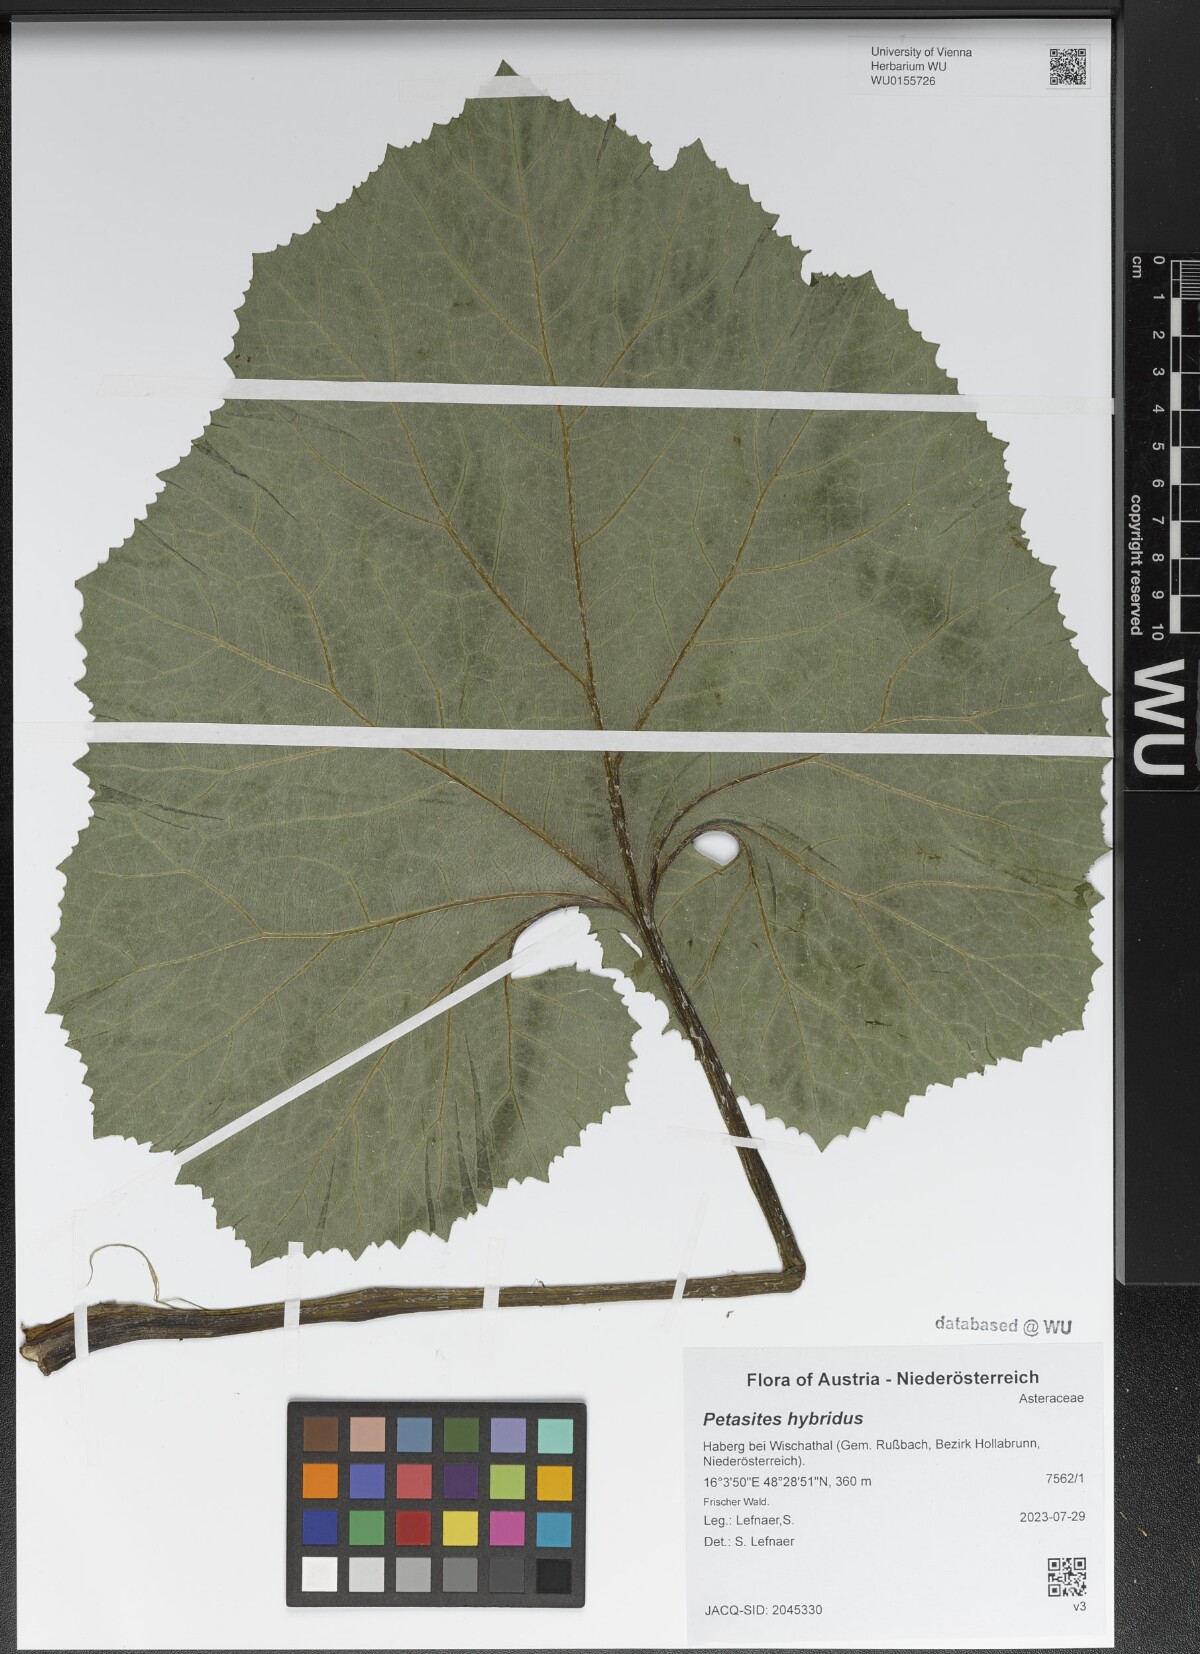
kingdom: Plantae
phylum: Tracheophyta
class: Magnoliopsida
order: Asterales
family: Asteraceae
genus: Petasites
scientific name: Petasites hybridus
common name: Butterbur
